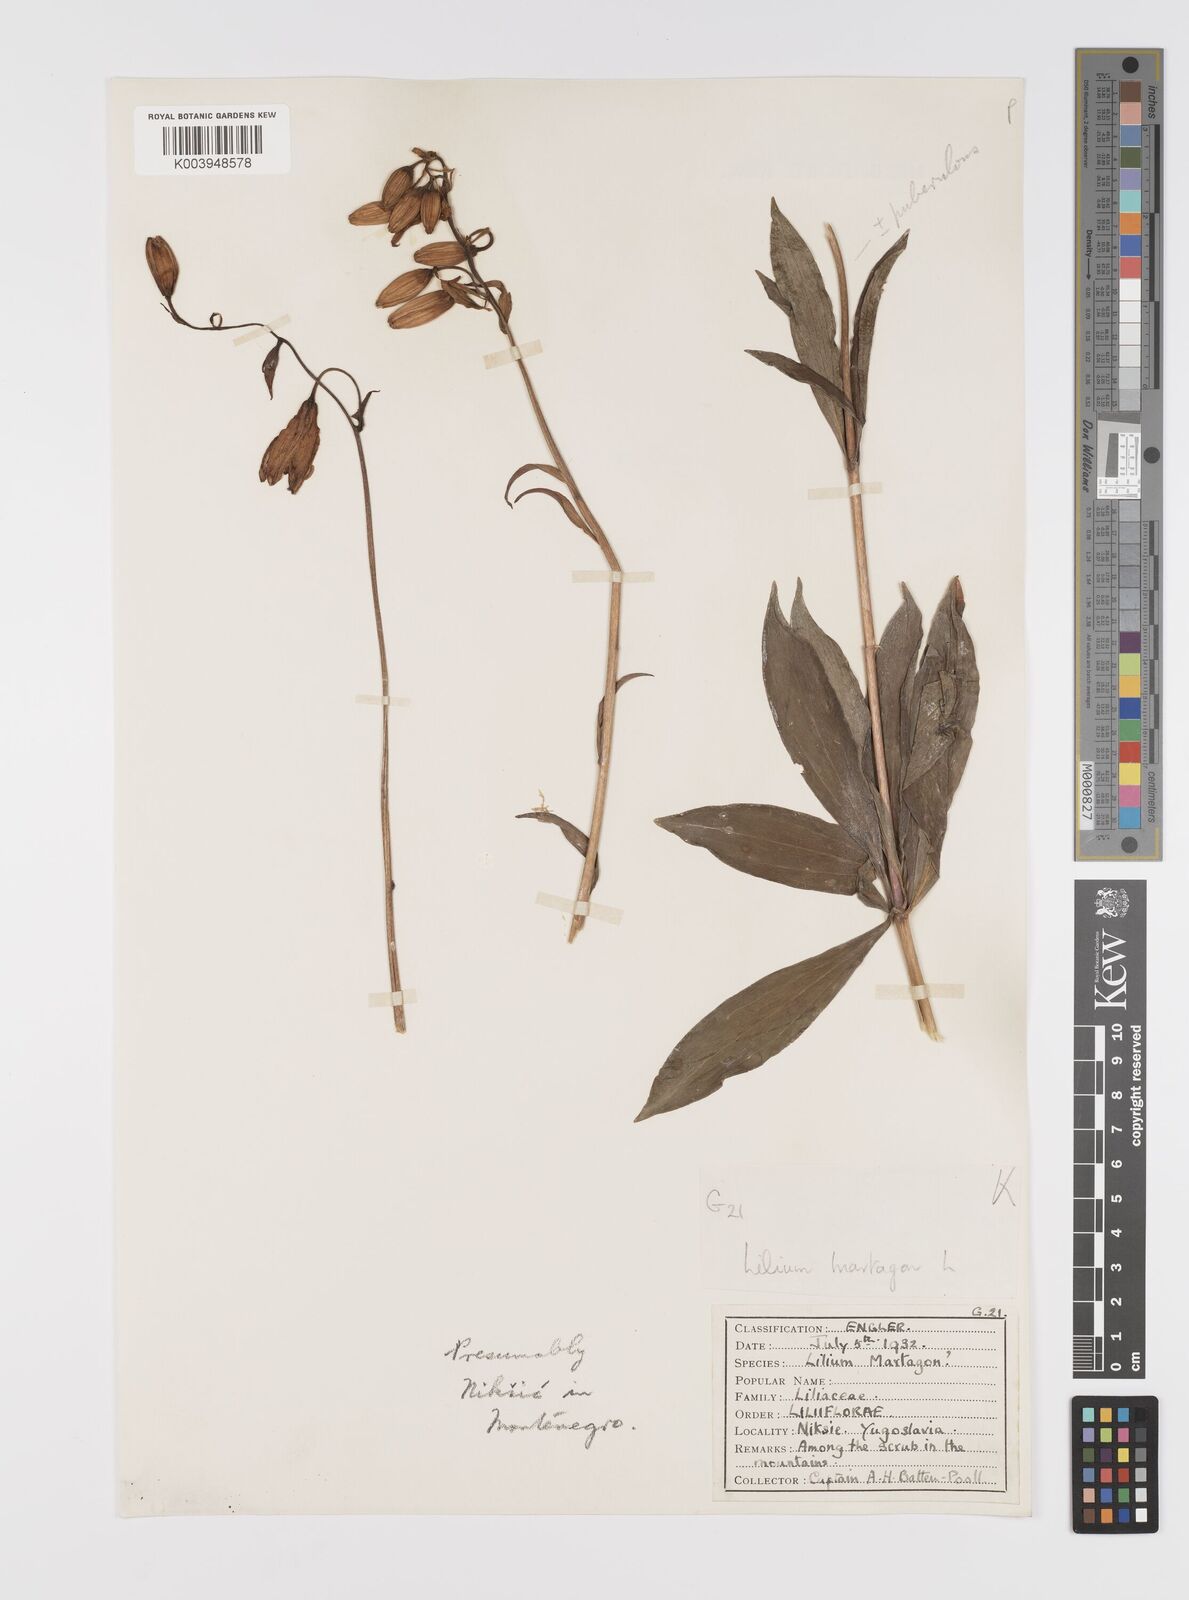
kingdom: Plantae
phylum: Tracheophyta
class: Liliopsida
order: Liliales
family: Liliaceae
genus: Lilium
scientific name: Lilium martagon
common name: Martagon lily
